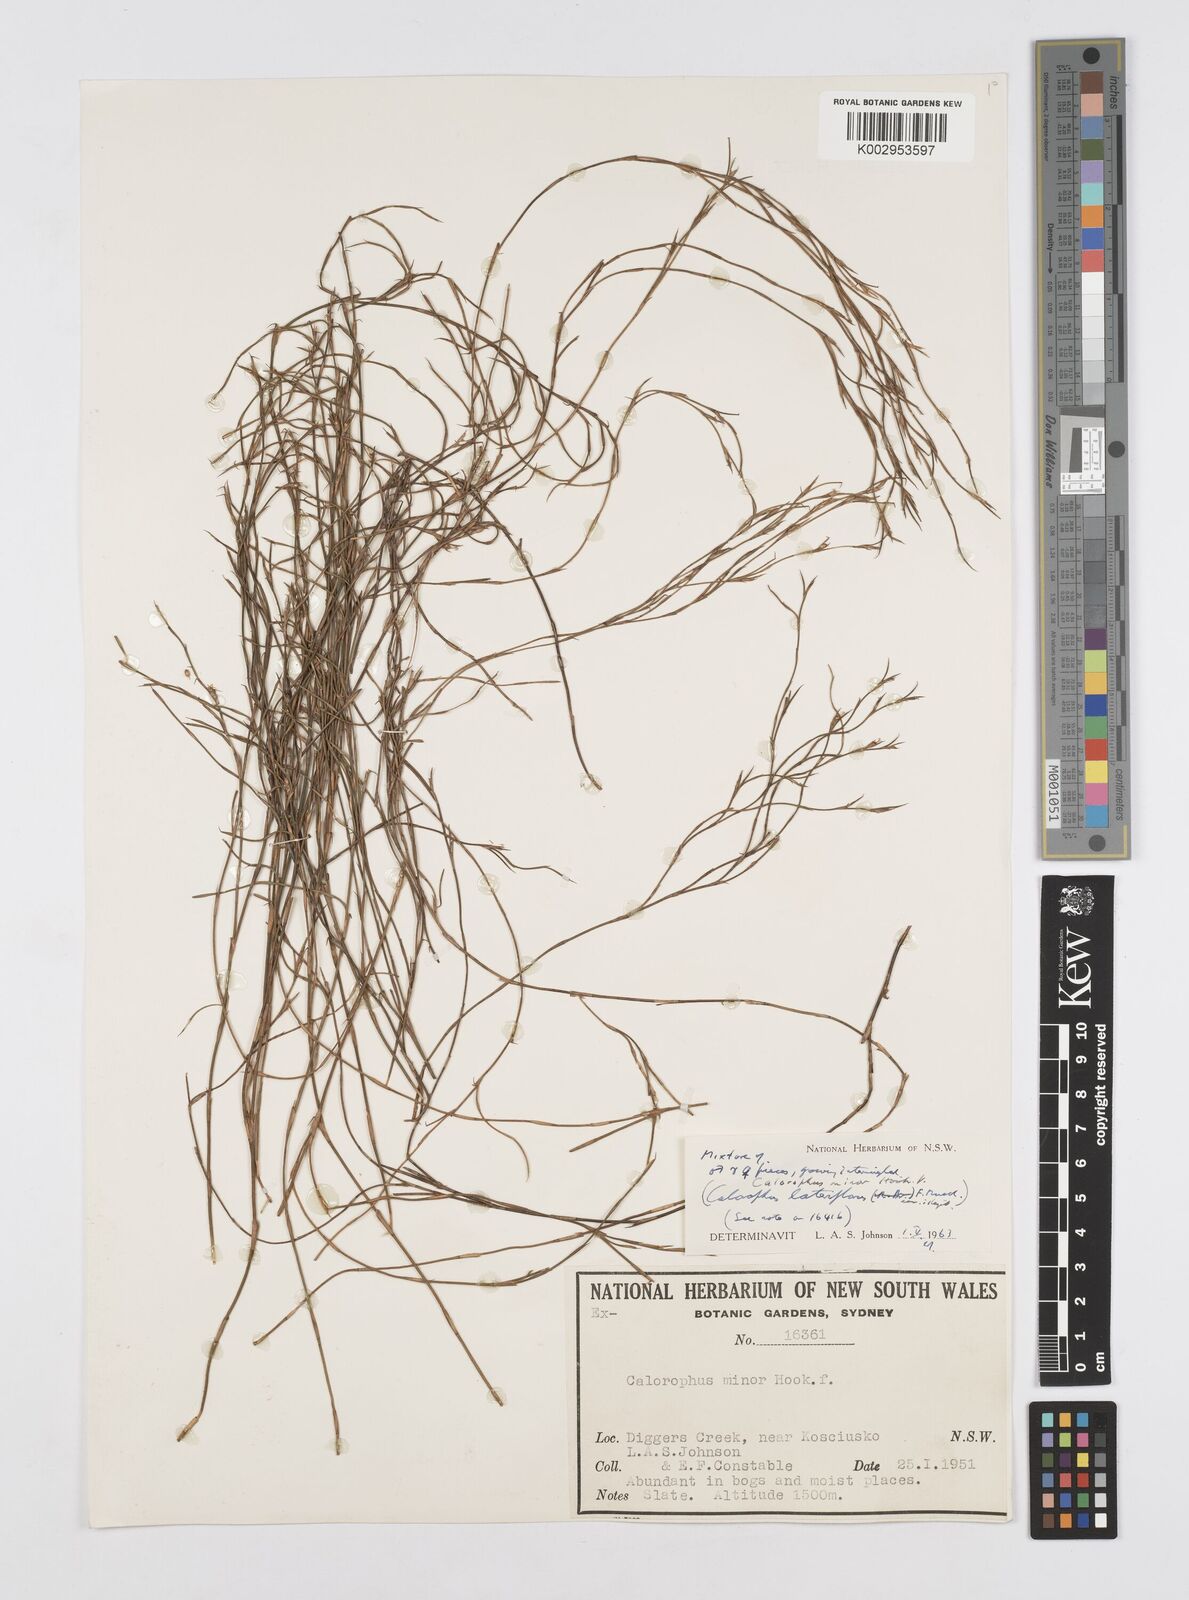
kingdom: Plantae
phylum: Tracheophyta
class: Liliopsida
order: Poales
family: Restionaceae
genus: Empodisma
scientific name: Empodisma minus
